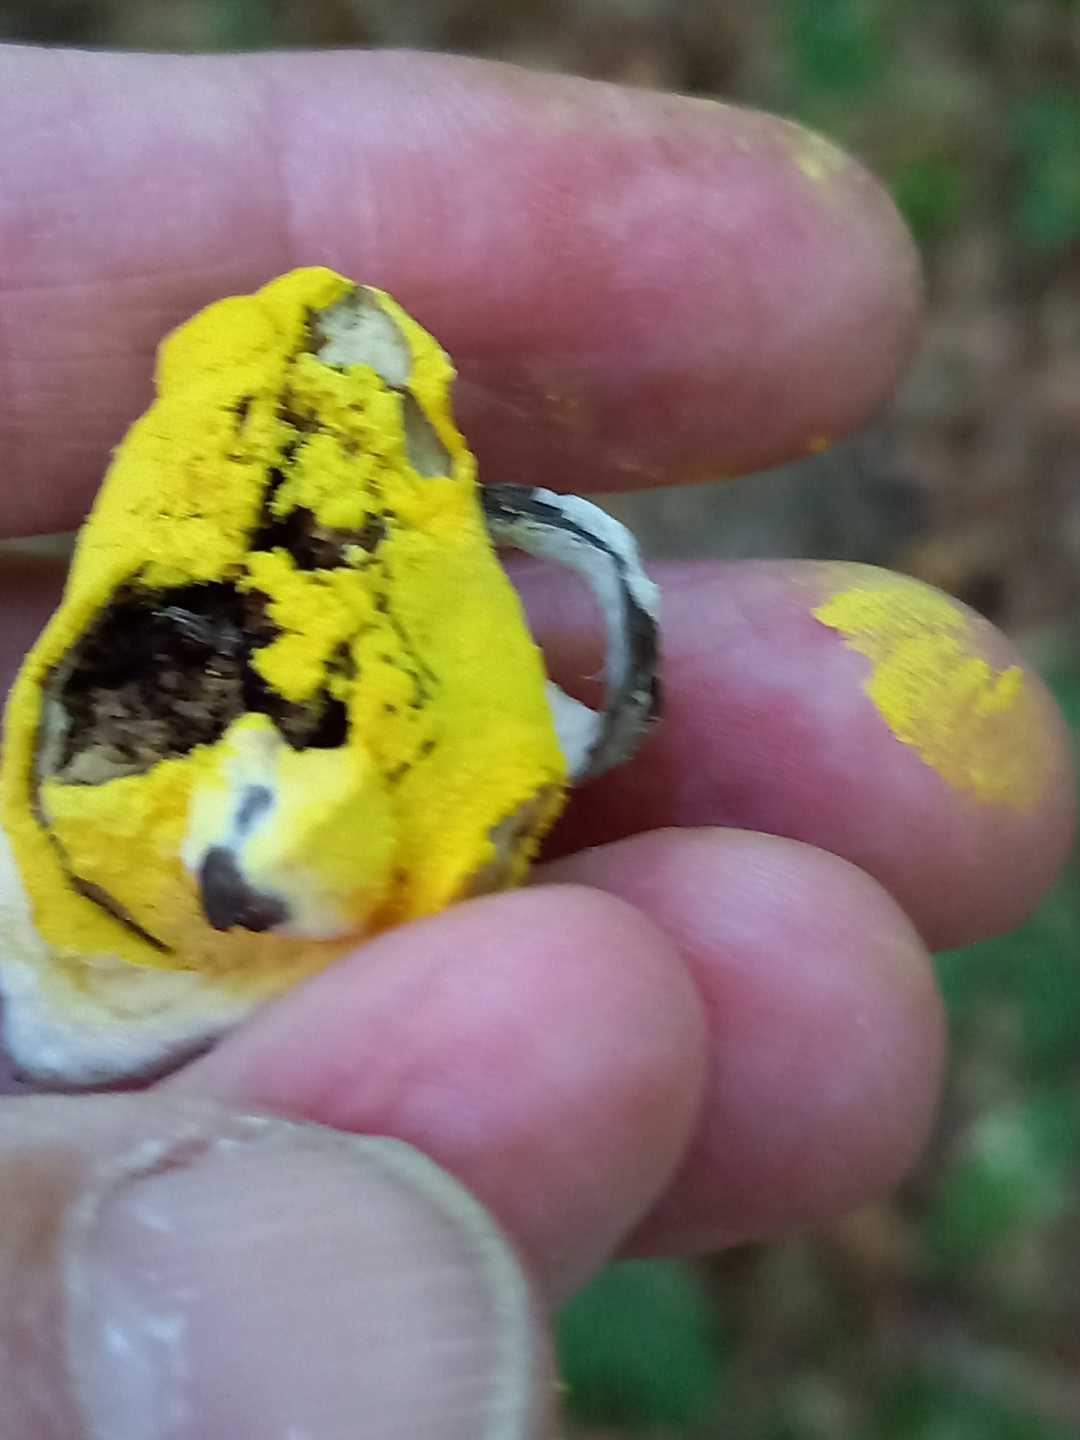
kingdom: Fungi
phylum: Ascomycota
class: Sordariomycetes
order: Hypocreales
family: Hypocreaceae
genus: Hypomyces
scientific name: Hypomyces
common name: snylteskorpe
